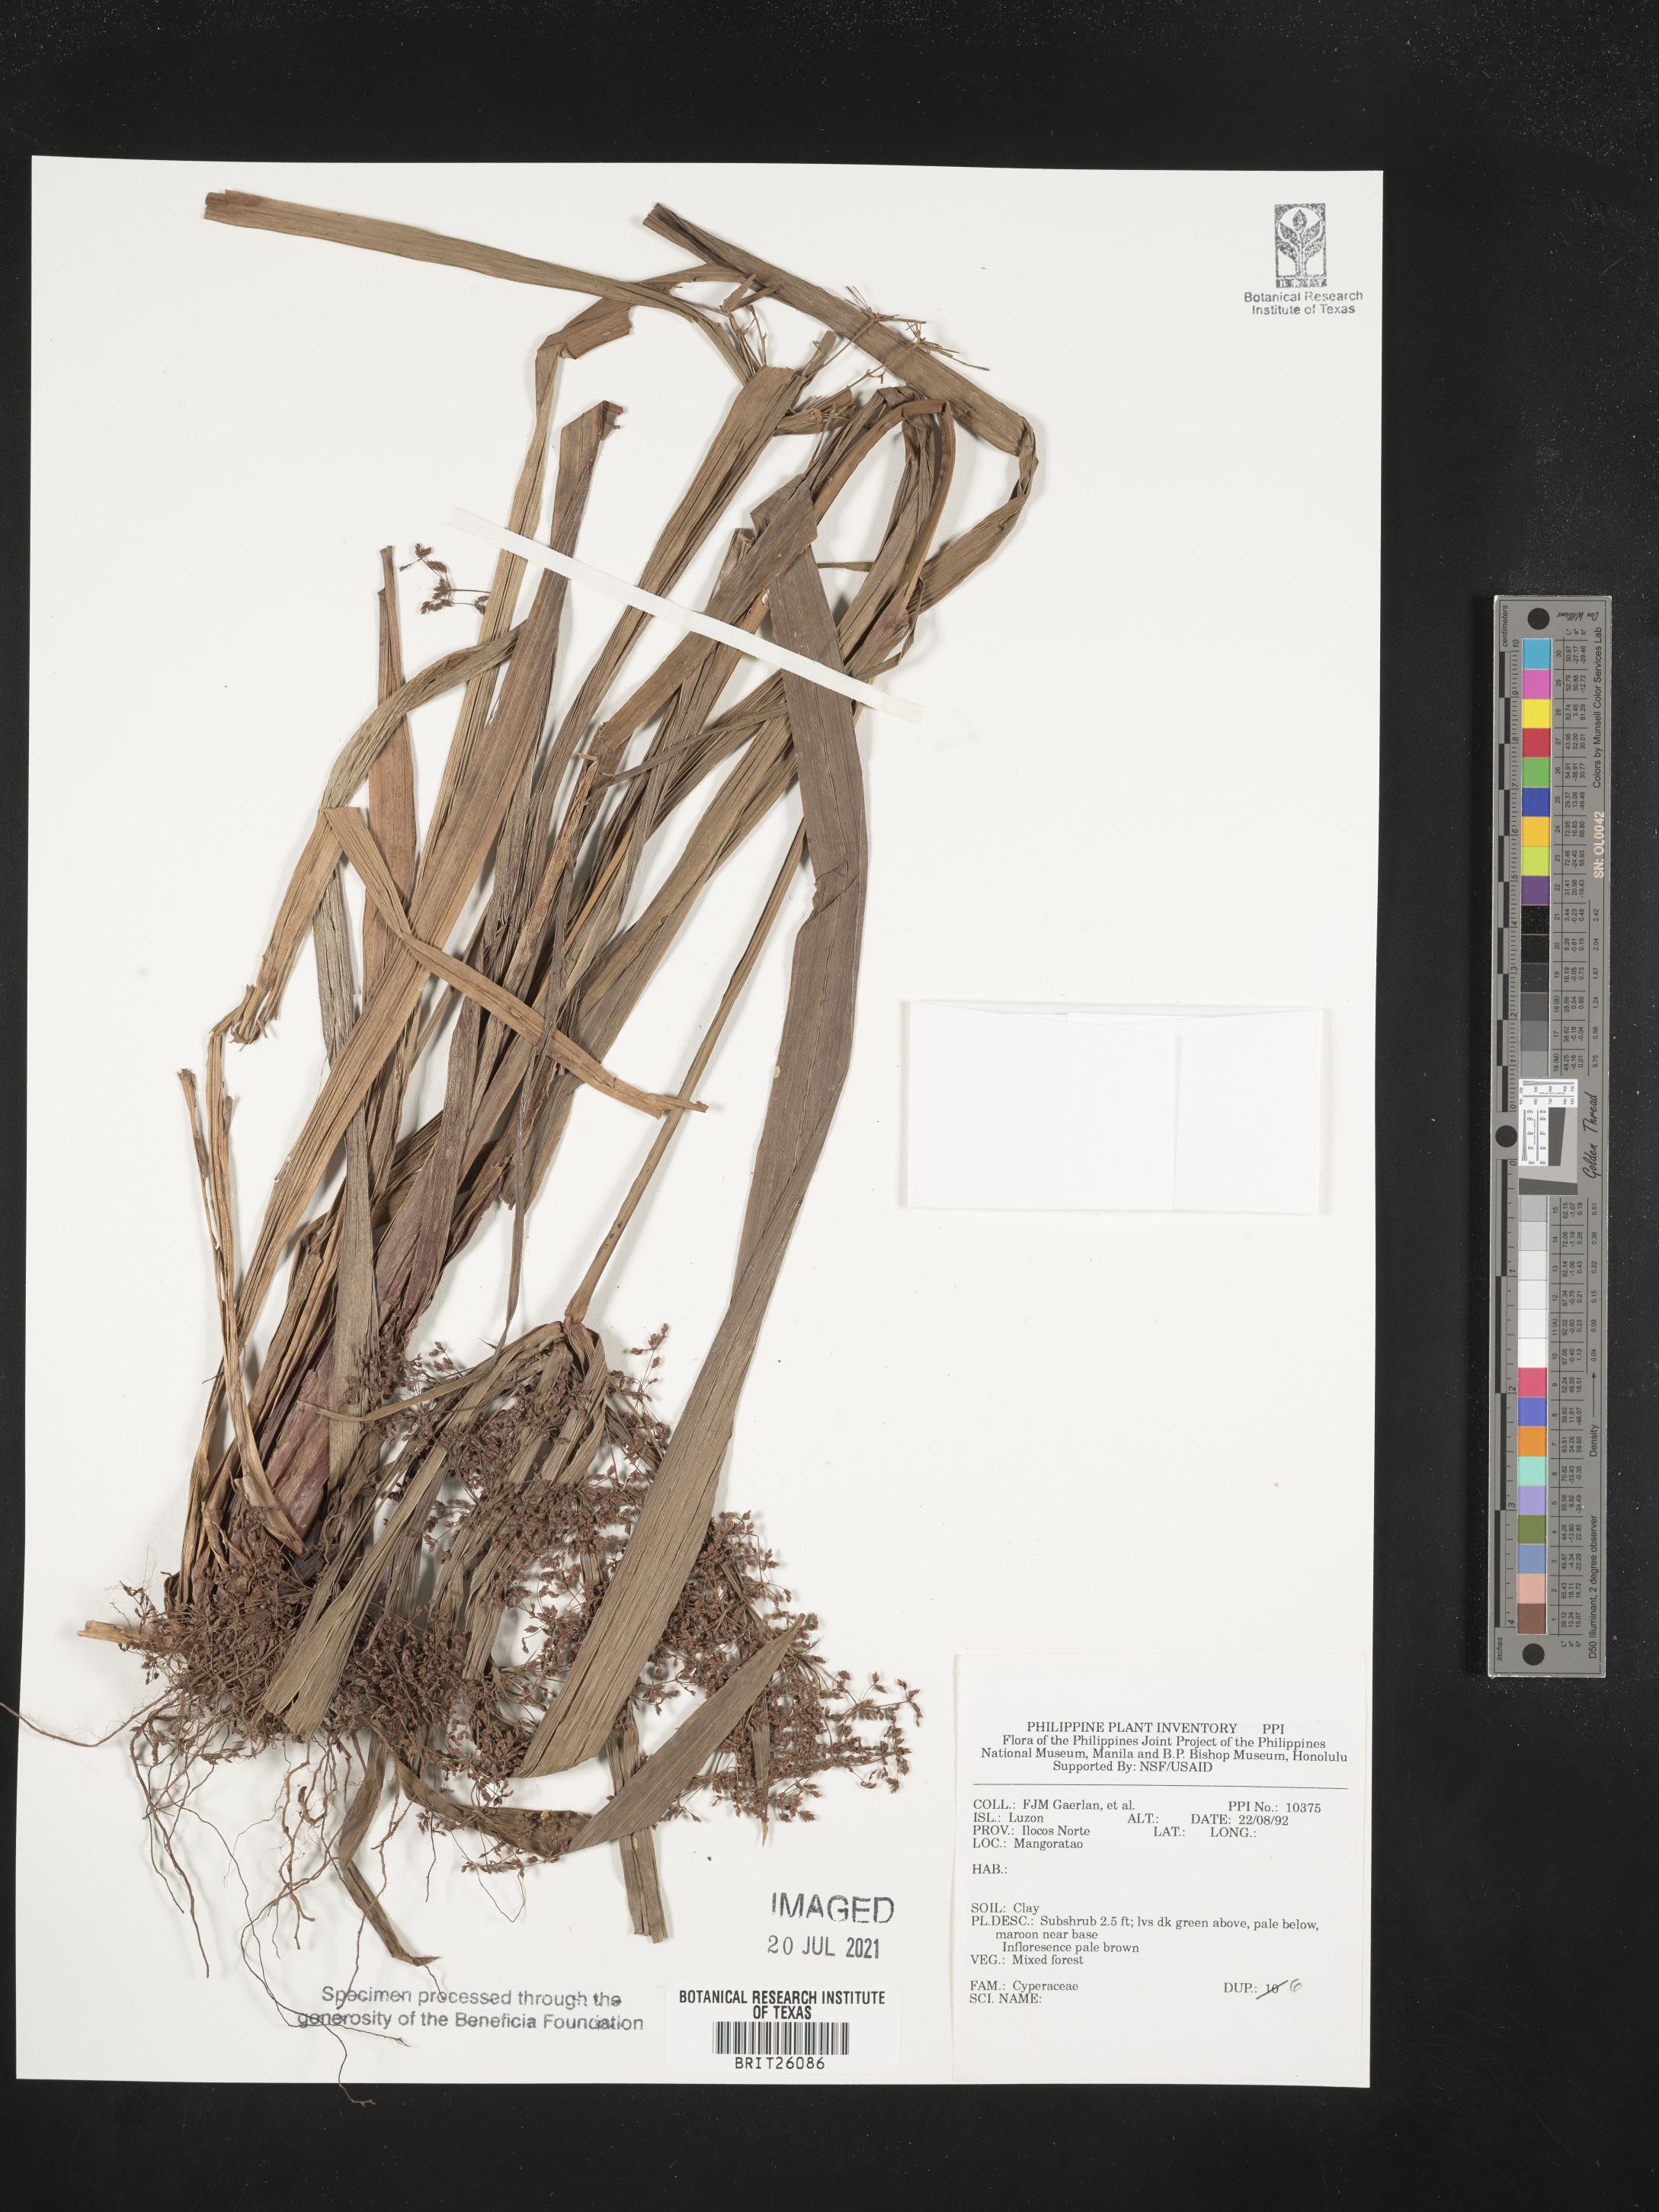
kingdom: Plantae
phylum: Tracheophyta
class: Liliopsida
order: Poales
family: Cyperaceae
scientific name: Cyperaceae
